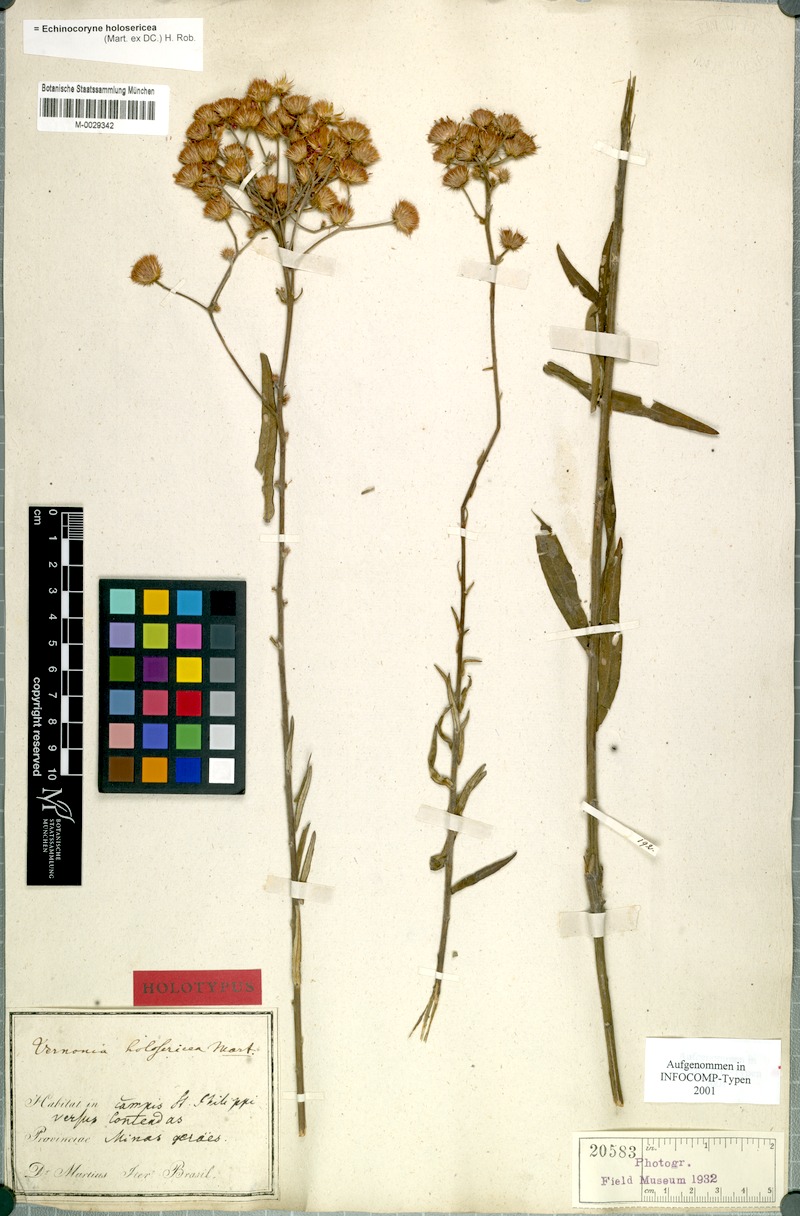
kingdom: Plantae
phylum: Tracheophyta
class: Magnoliopsida
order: Asterales
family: Asteraceae
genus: Echinocoryne
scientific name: Echinocoryne holosericea
